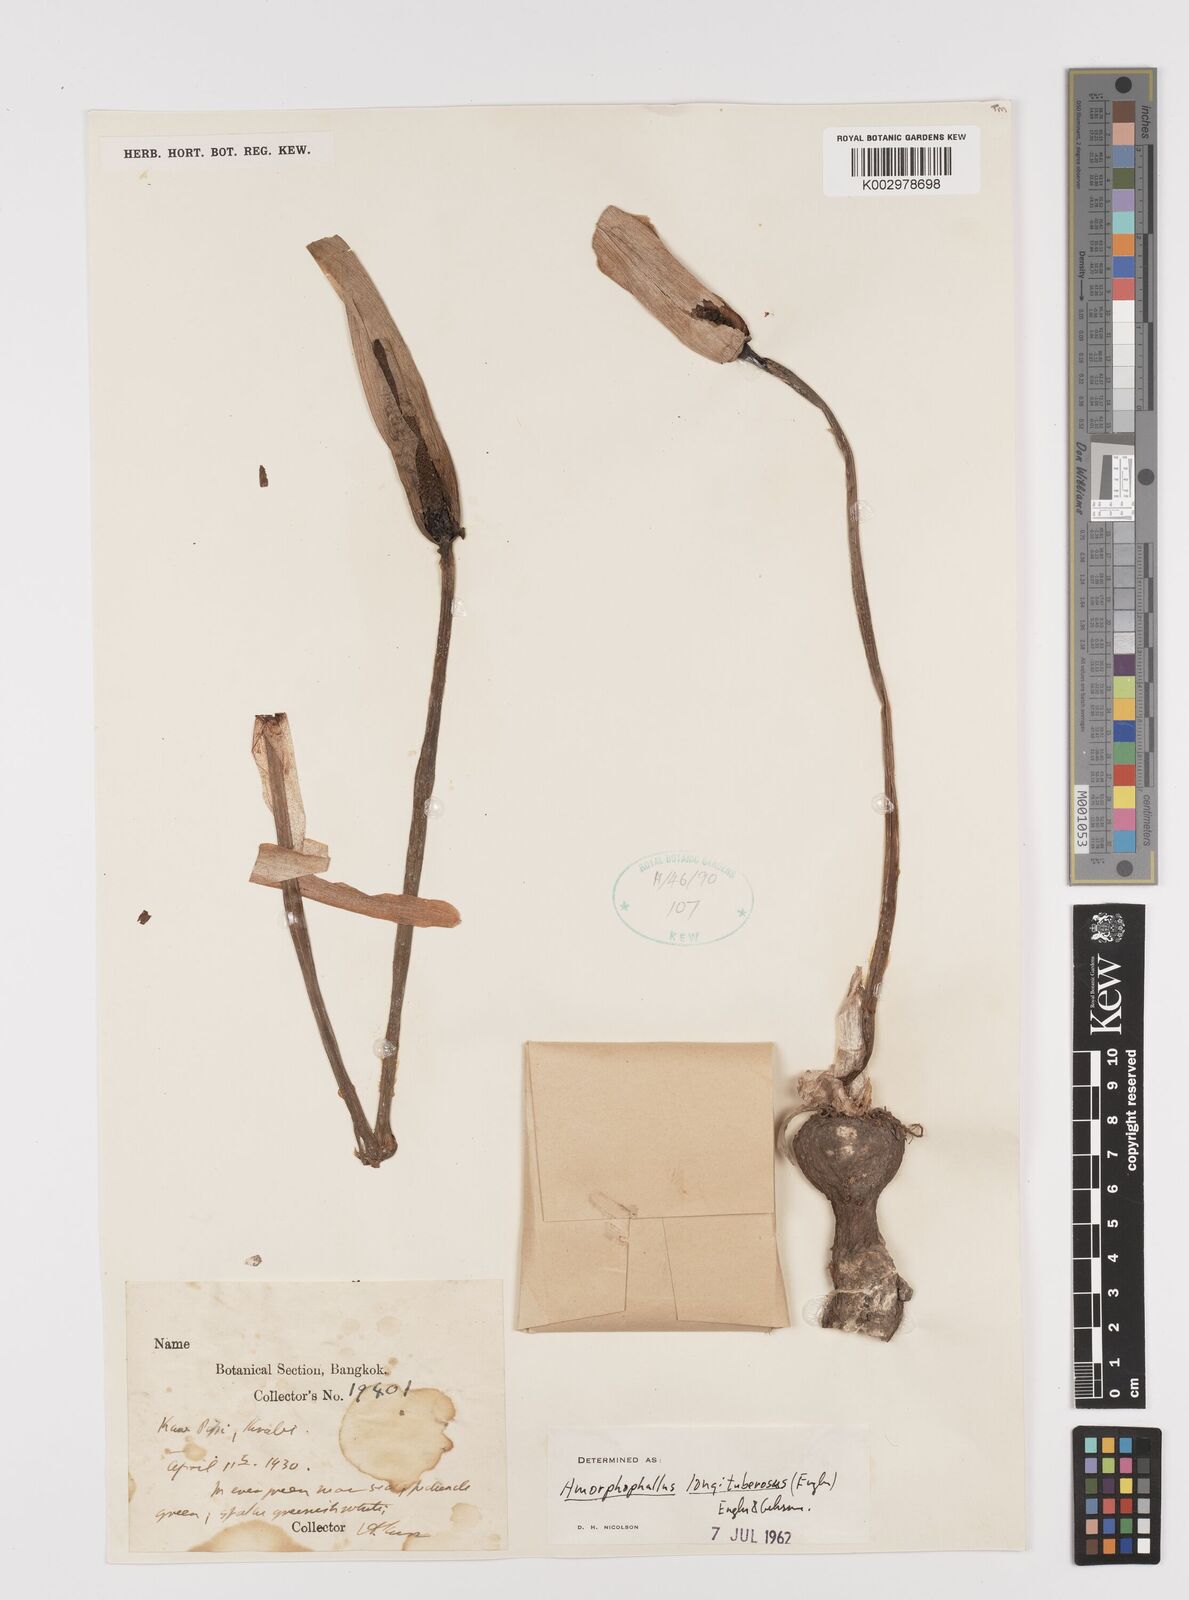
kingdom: Plantae
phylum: Tracheophyta
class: Liliopsida
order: Alismatales
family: Araceae
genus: Amorphophallus
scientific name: Amorphophallus longituberosus
